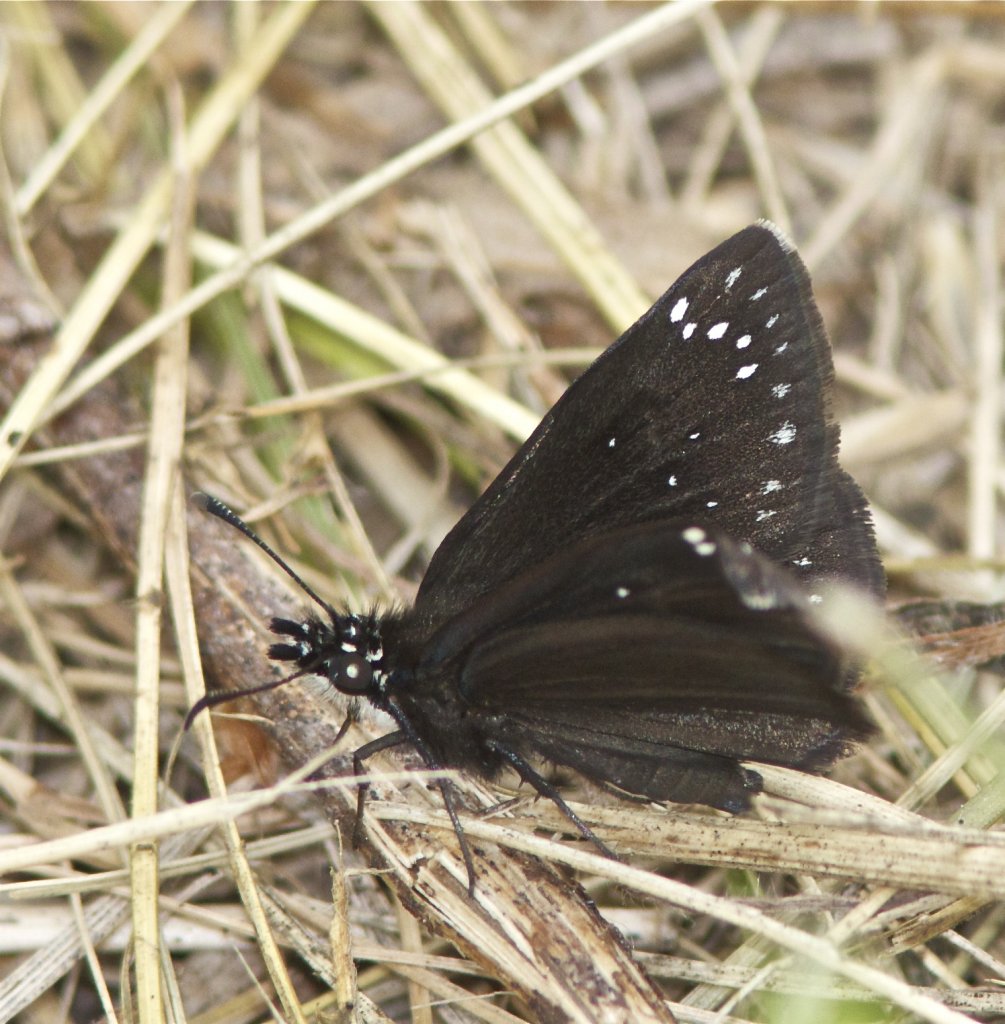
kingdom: Animalia
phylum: Arthropoda
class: Insecta
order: Lepidoptera
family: Hesperiidae
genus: Pholisora
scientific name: Pholisora catullus
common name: Common Sootywing
